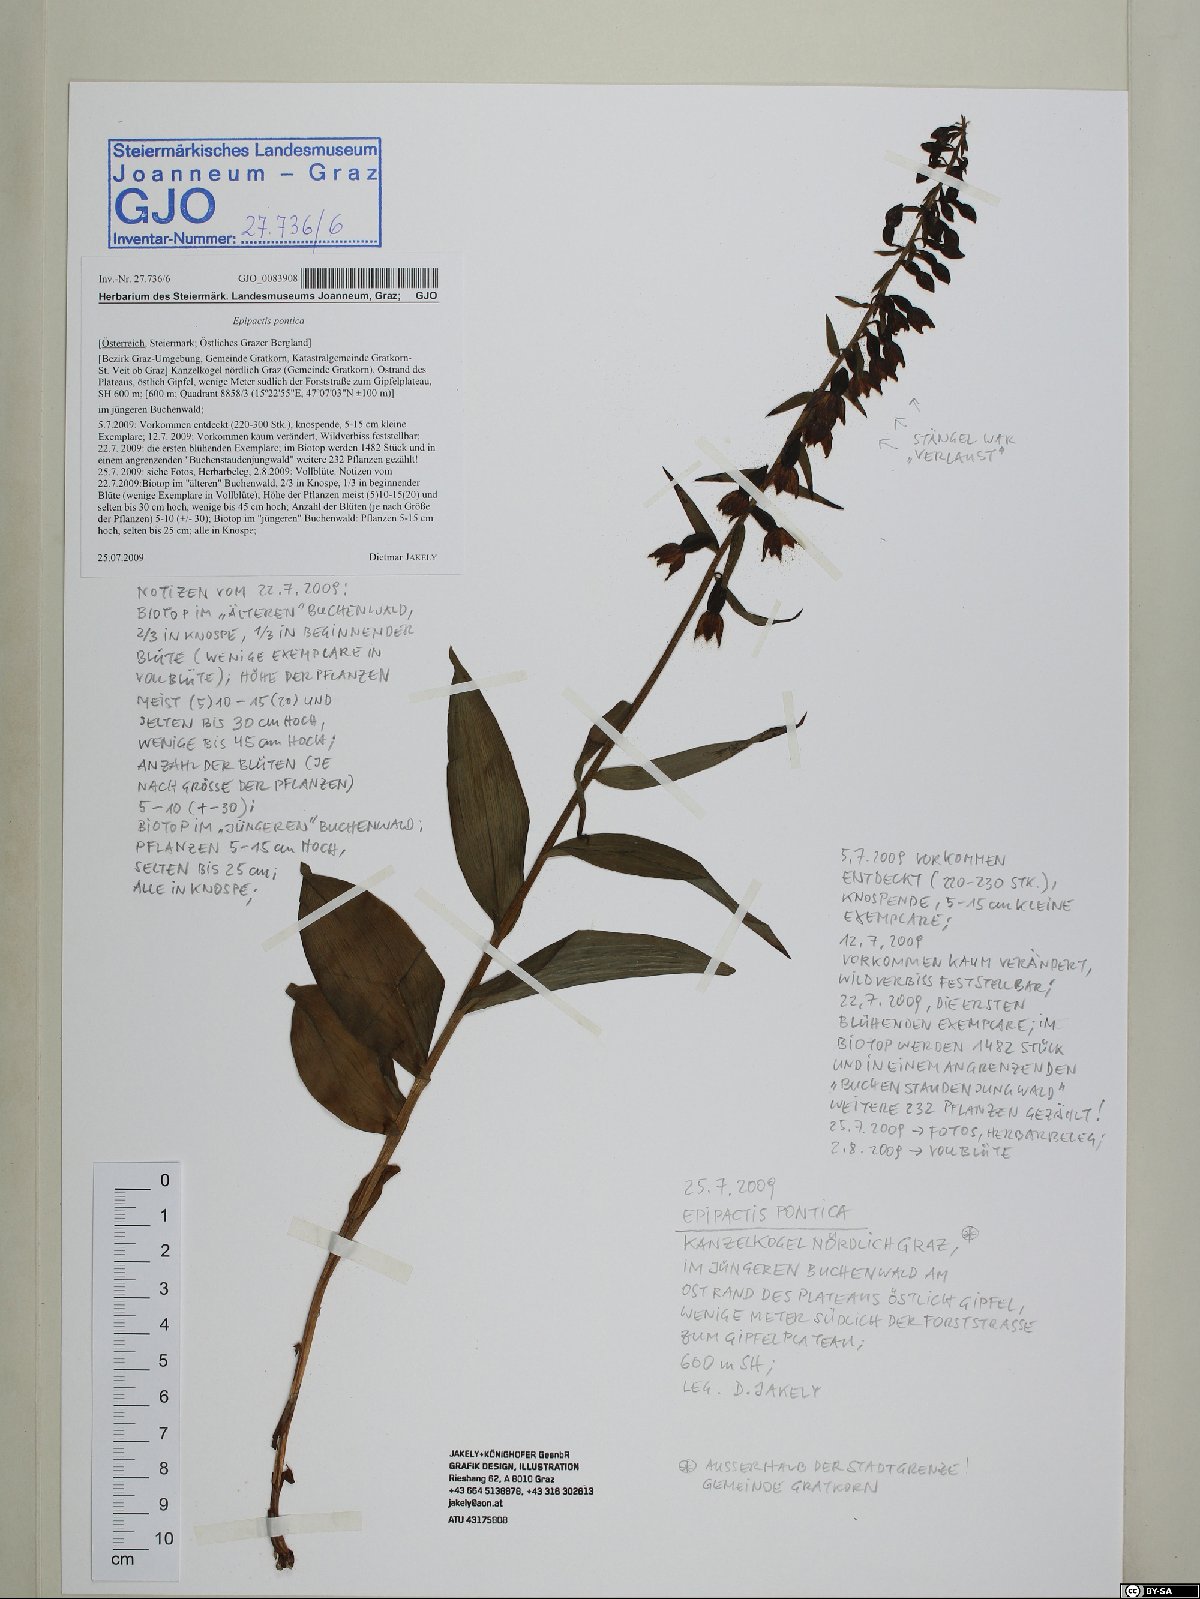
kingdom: Plantae
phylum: Tracheophyta
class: Liliopsida
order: Asparagales
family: Orchidaceae
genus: Epipactis
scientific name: Epipactis pontica
